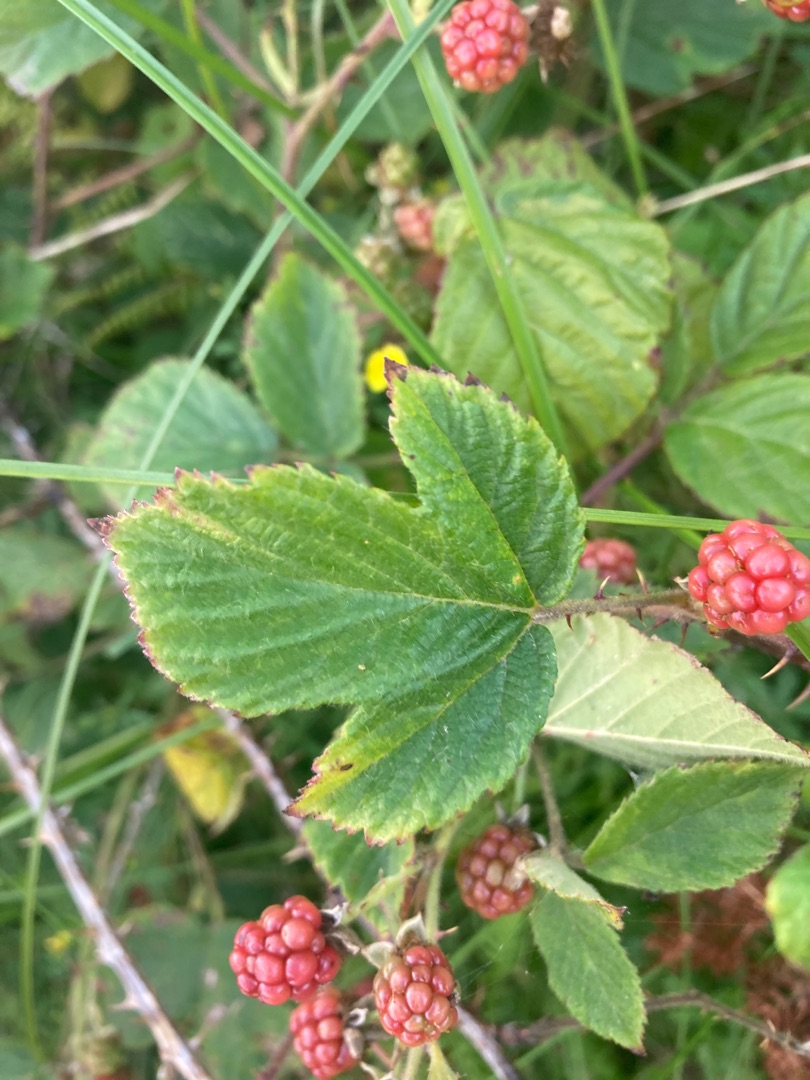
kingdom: Plantae
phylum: Tracheophyta
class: Magnoliopsida
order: Rosales
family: Rosaceae
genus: Rubus
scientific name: Rubus
